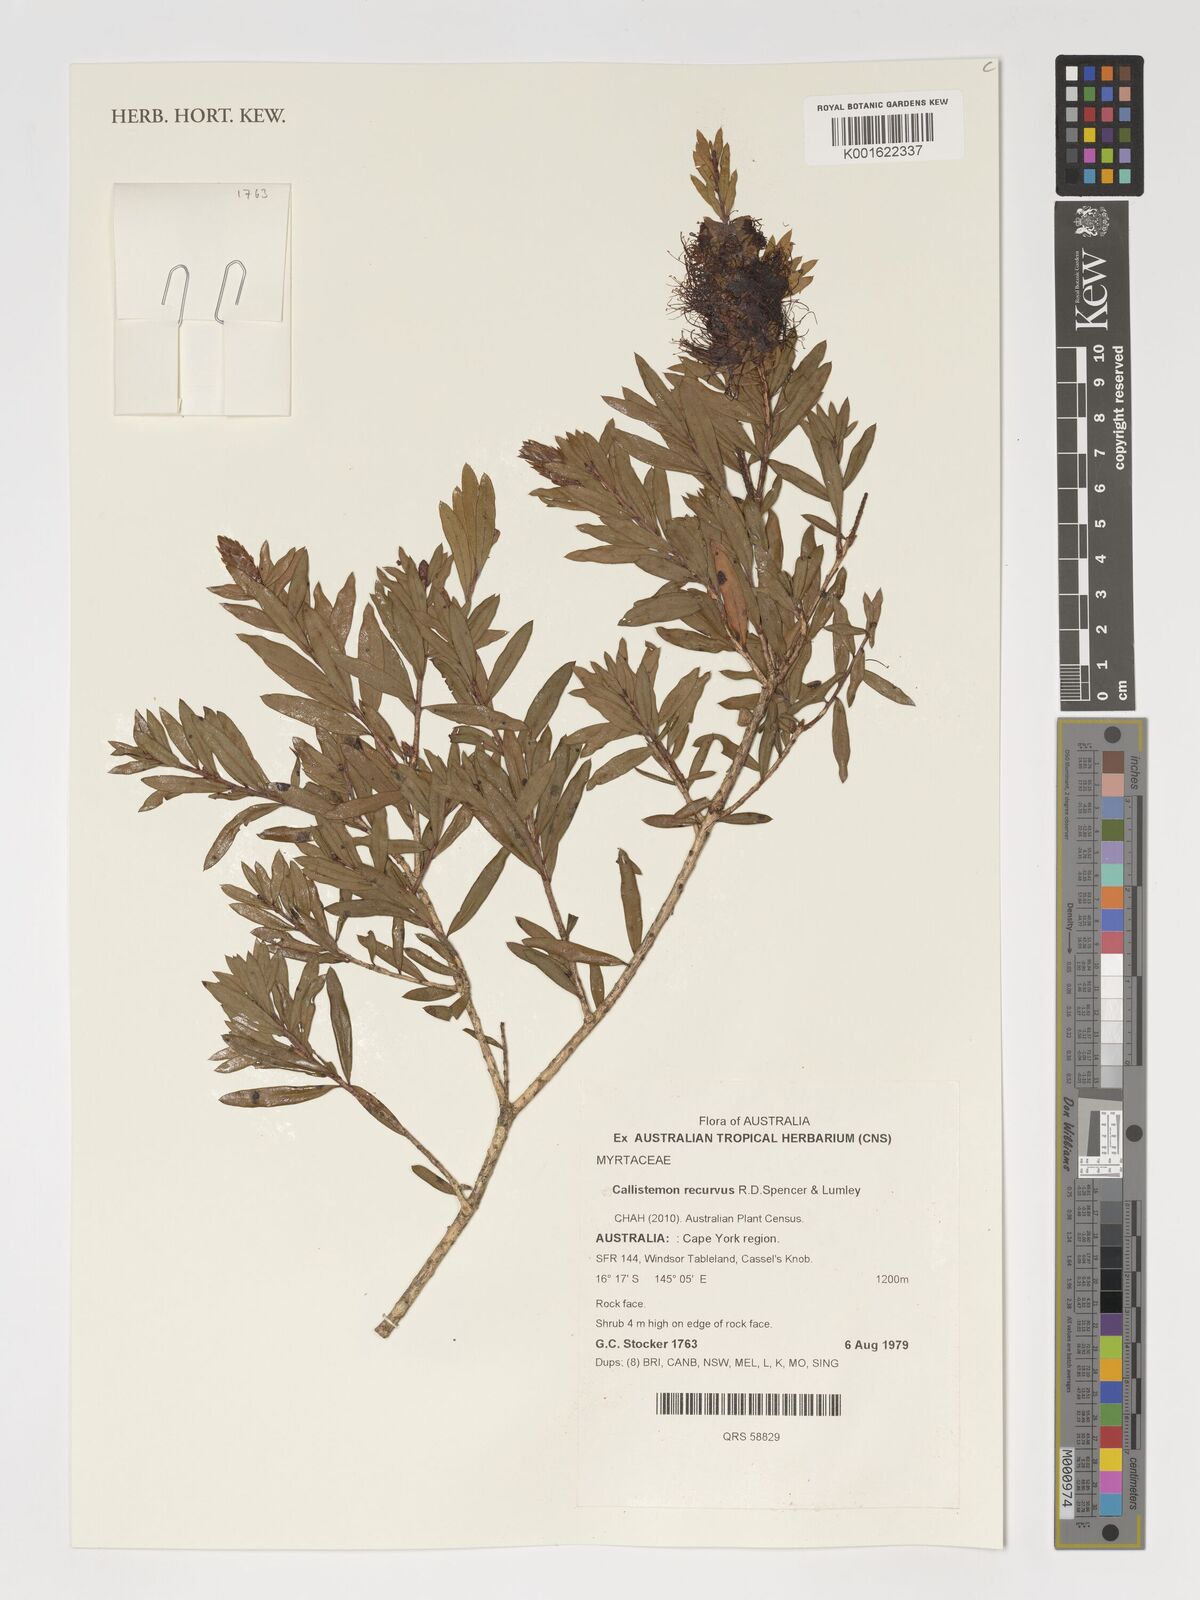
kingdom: Plantae
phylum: Tracheophyta
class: Magnoliopsida
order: Myrtales
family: Myrtaceae
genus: Callistemon
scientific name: Callistemon recurvus
